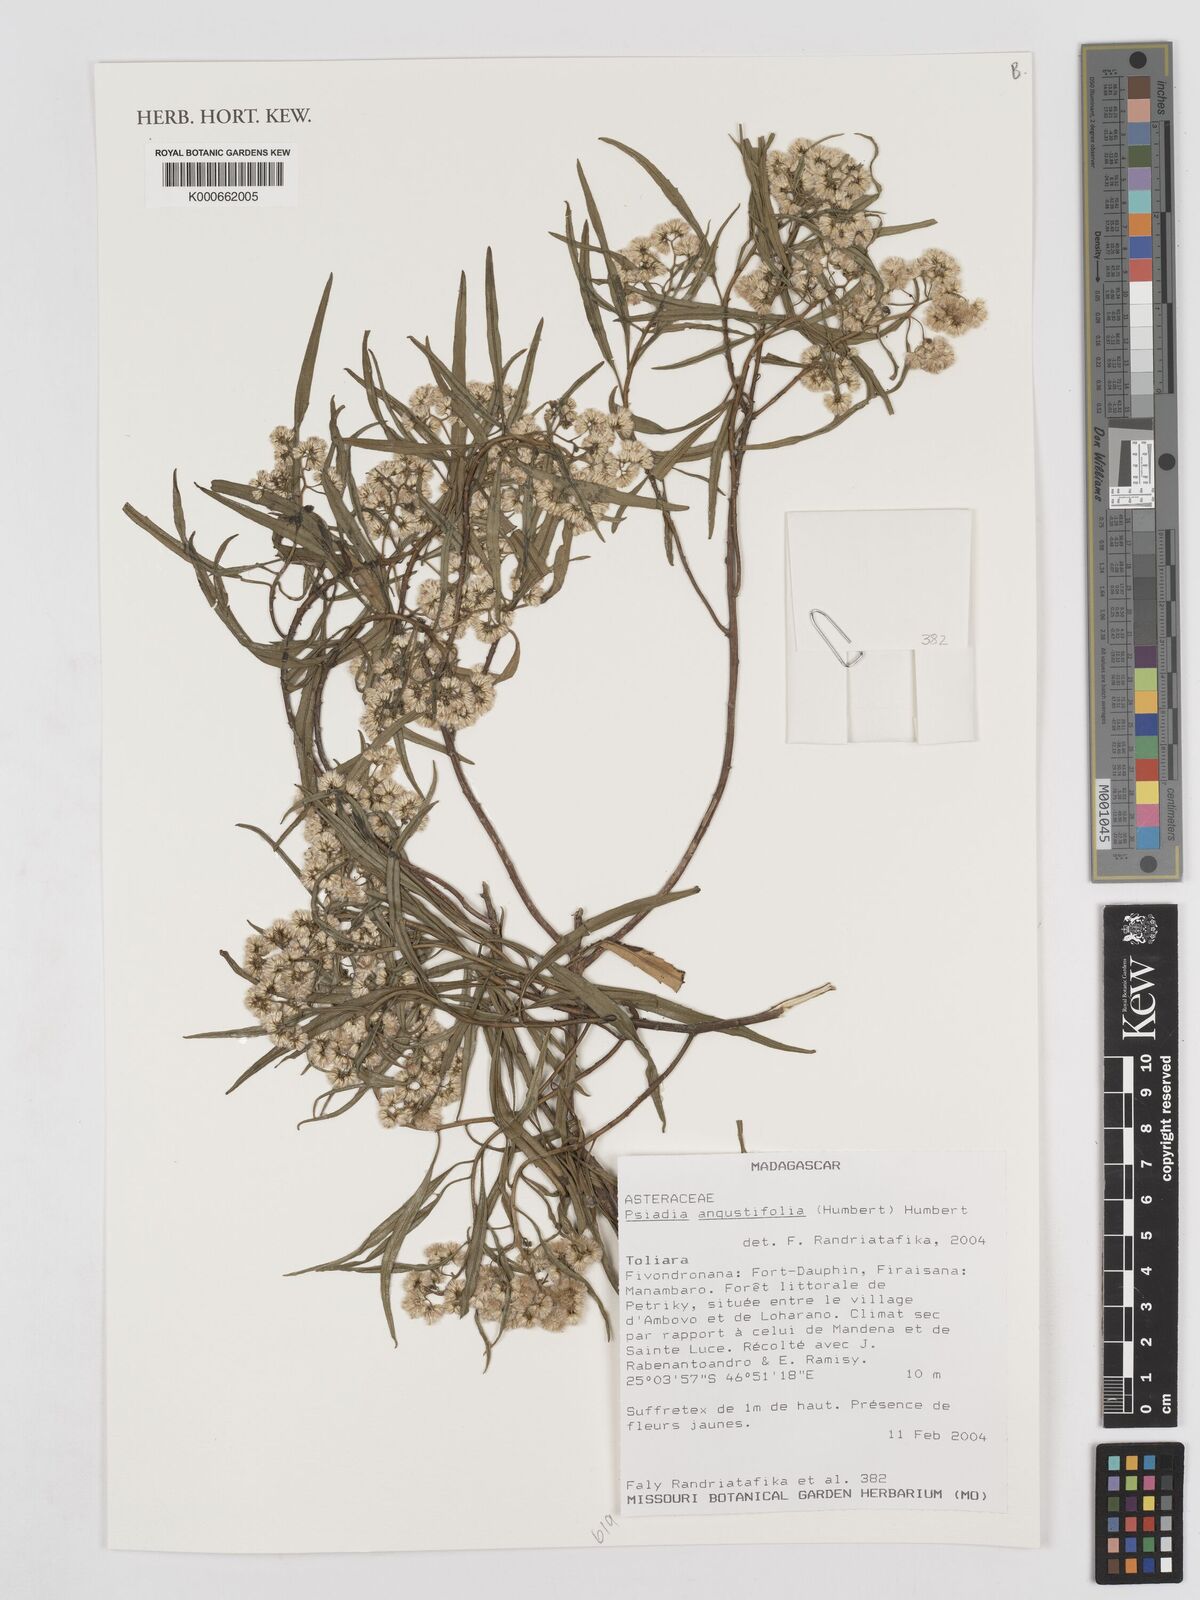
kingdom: Plantae
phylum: Tracheophyta
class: Magnoliopsida
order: Asterales
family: Asteraceae
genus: Psiadia
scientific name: Psiadia angustifolia
